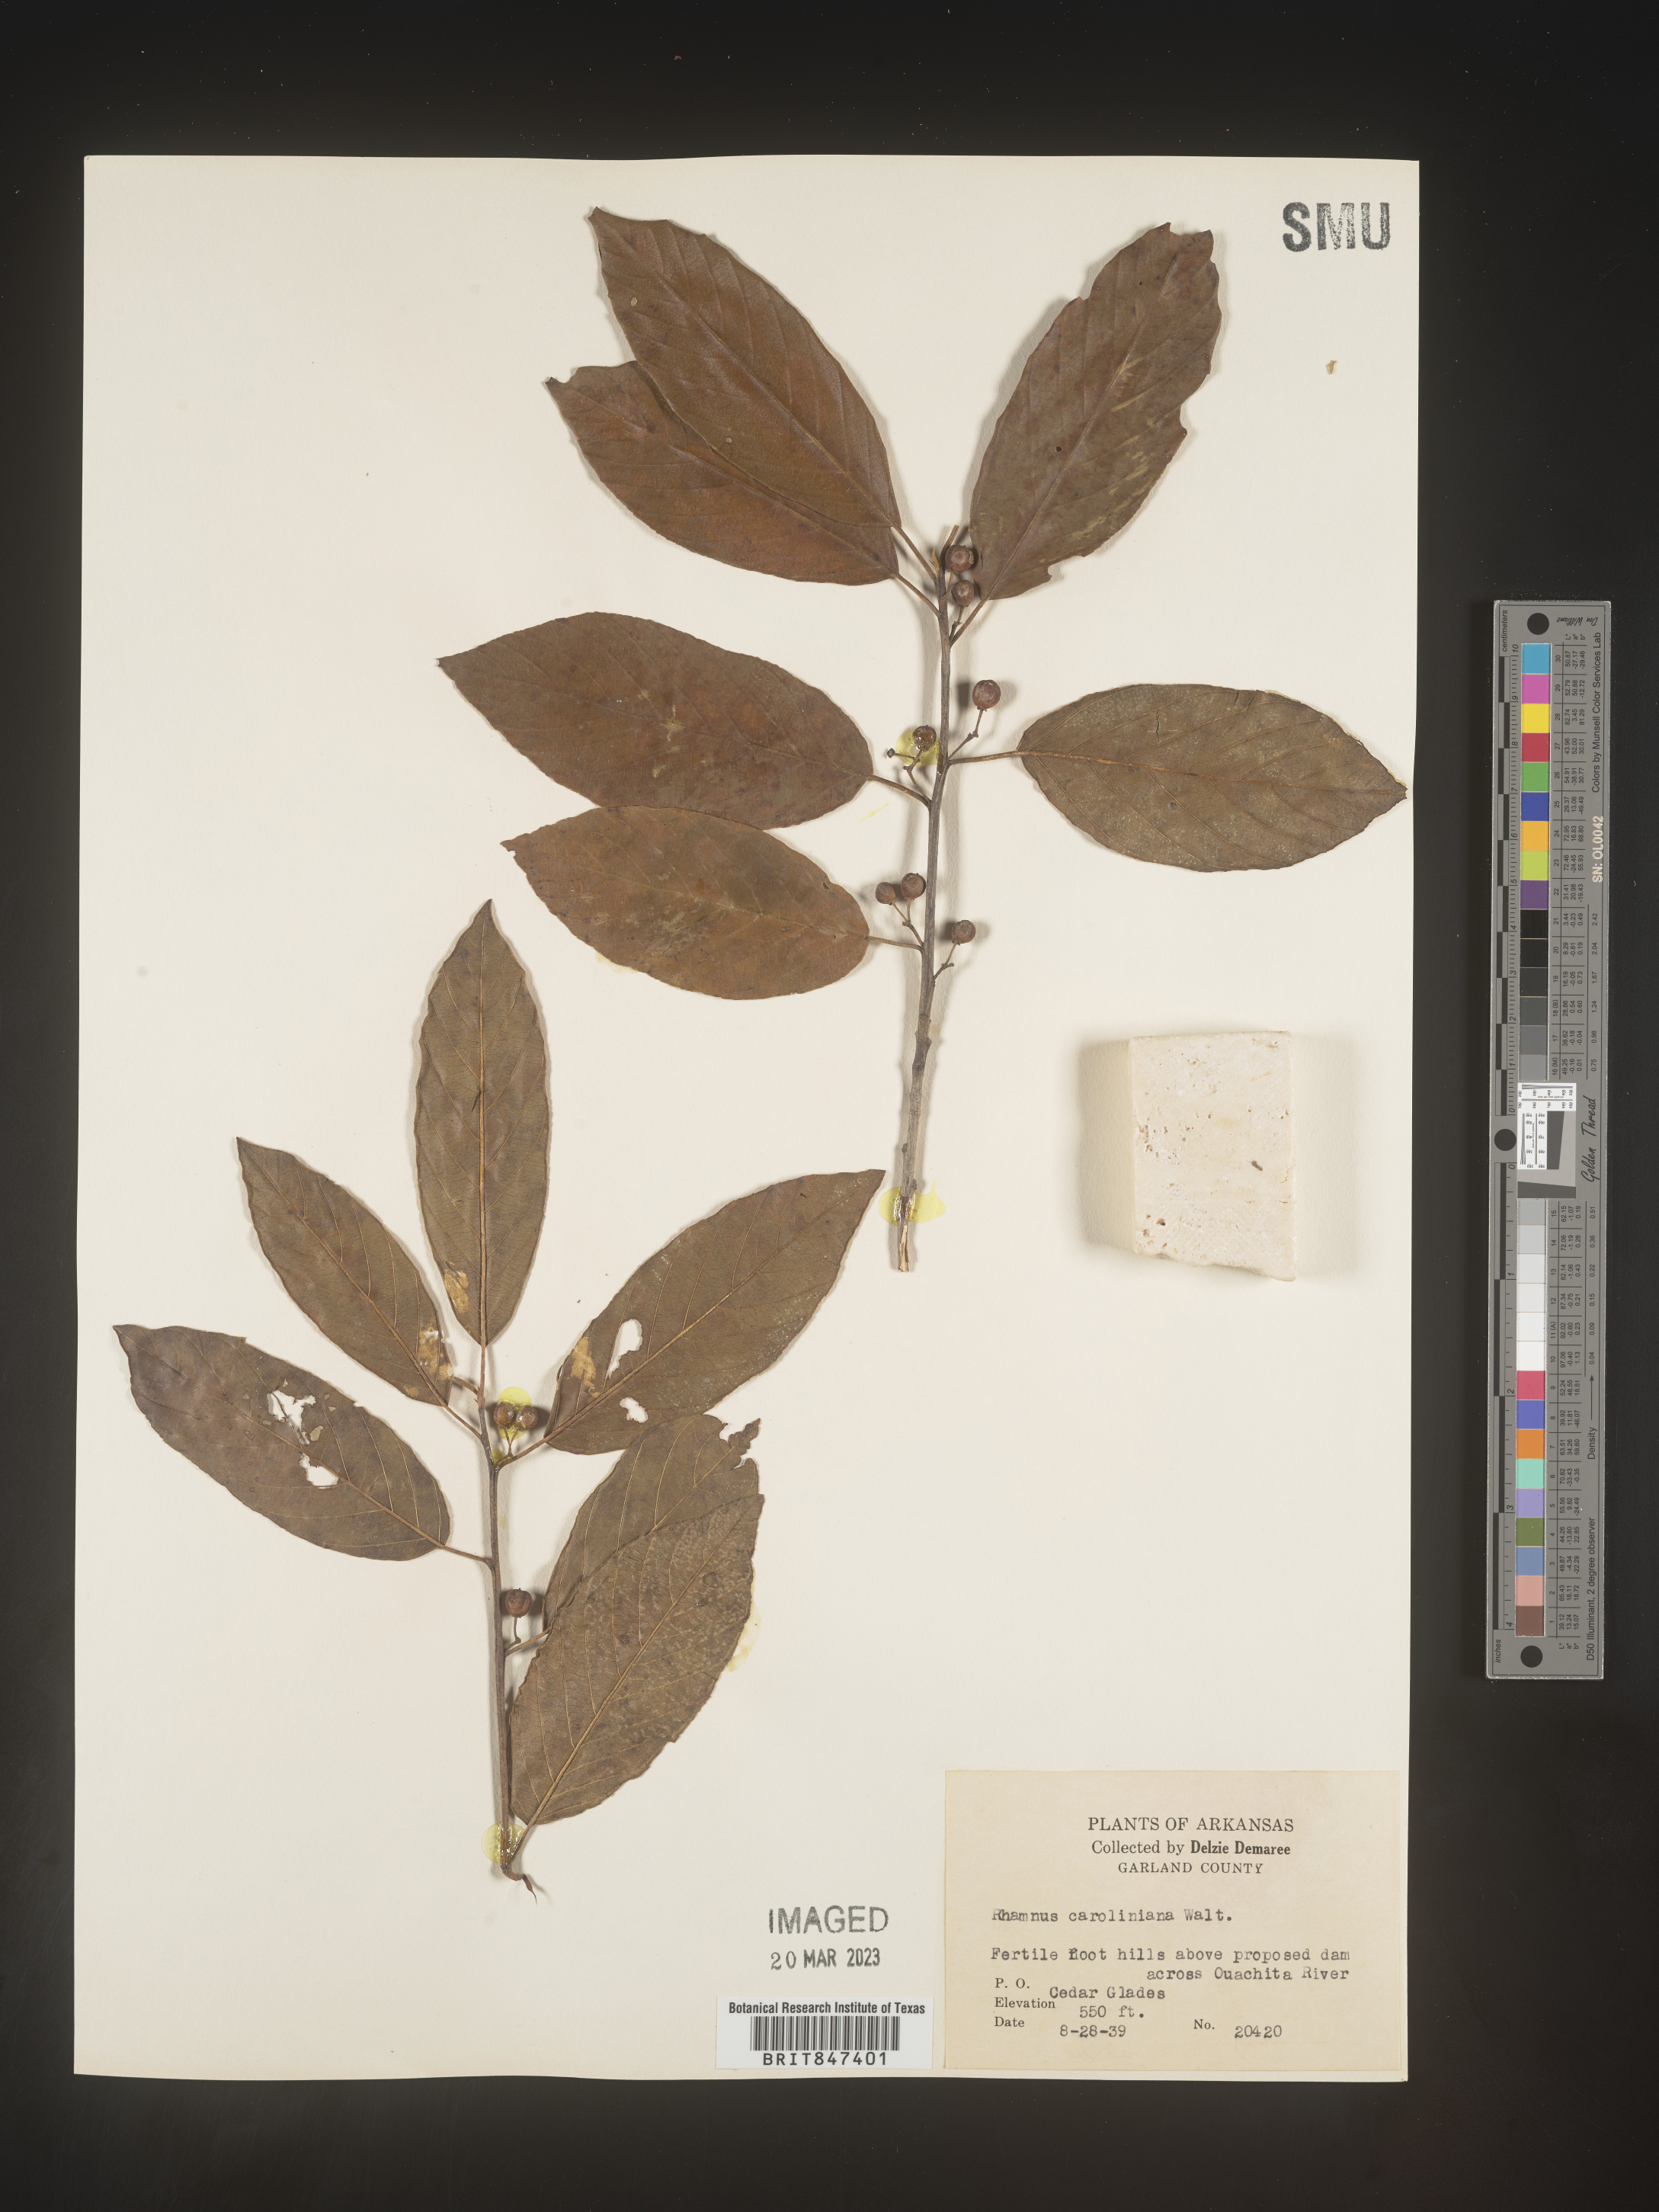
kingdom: Plantae
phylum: Tracheophyta
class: Magnoliopsida
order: Rosales
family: Rhamnaceae
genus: Frangula
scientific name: Frangula caroliniana
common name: Carolina buckthorn
